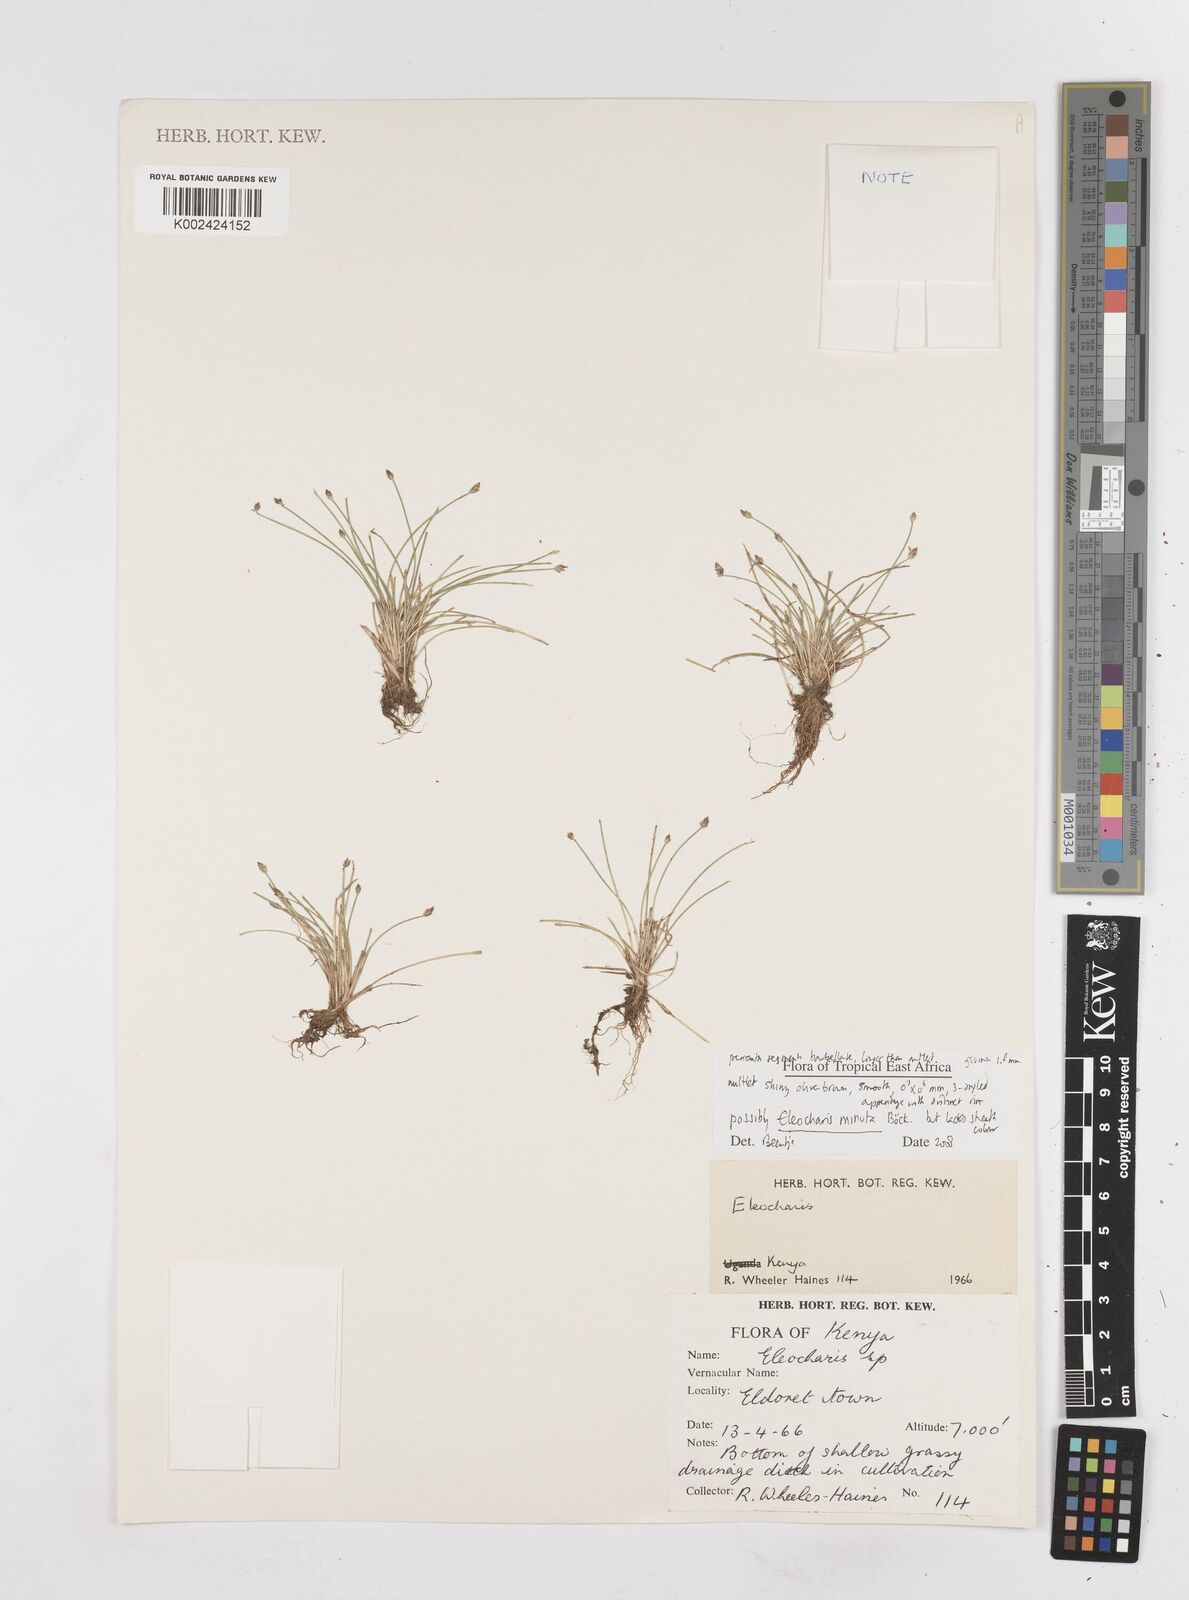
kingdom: Plantae
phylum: Tracheophyta
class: Liliopsida
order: Poales
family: Cyperaceae
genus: Eleocharis
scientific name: Eleocharis minuta
